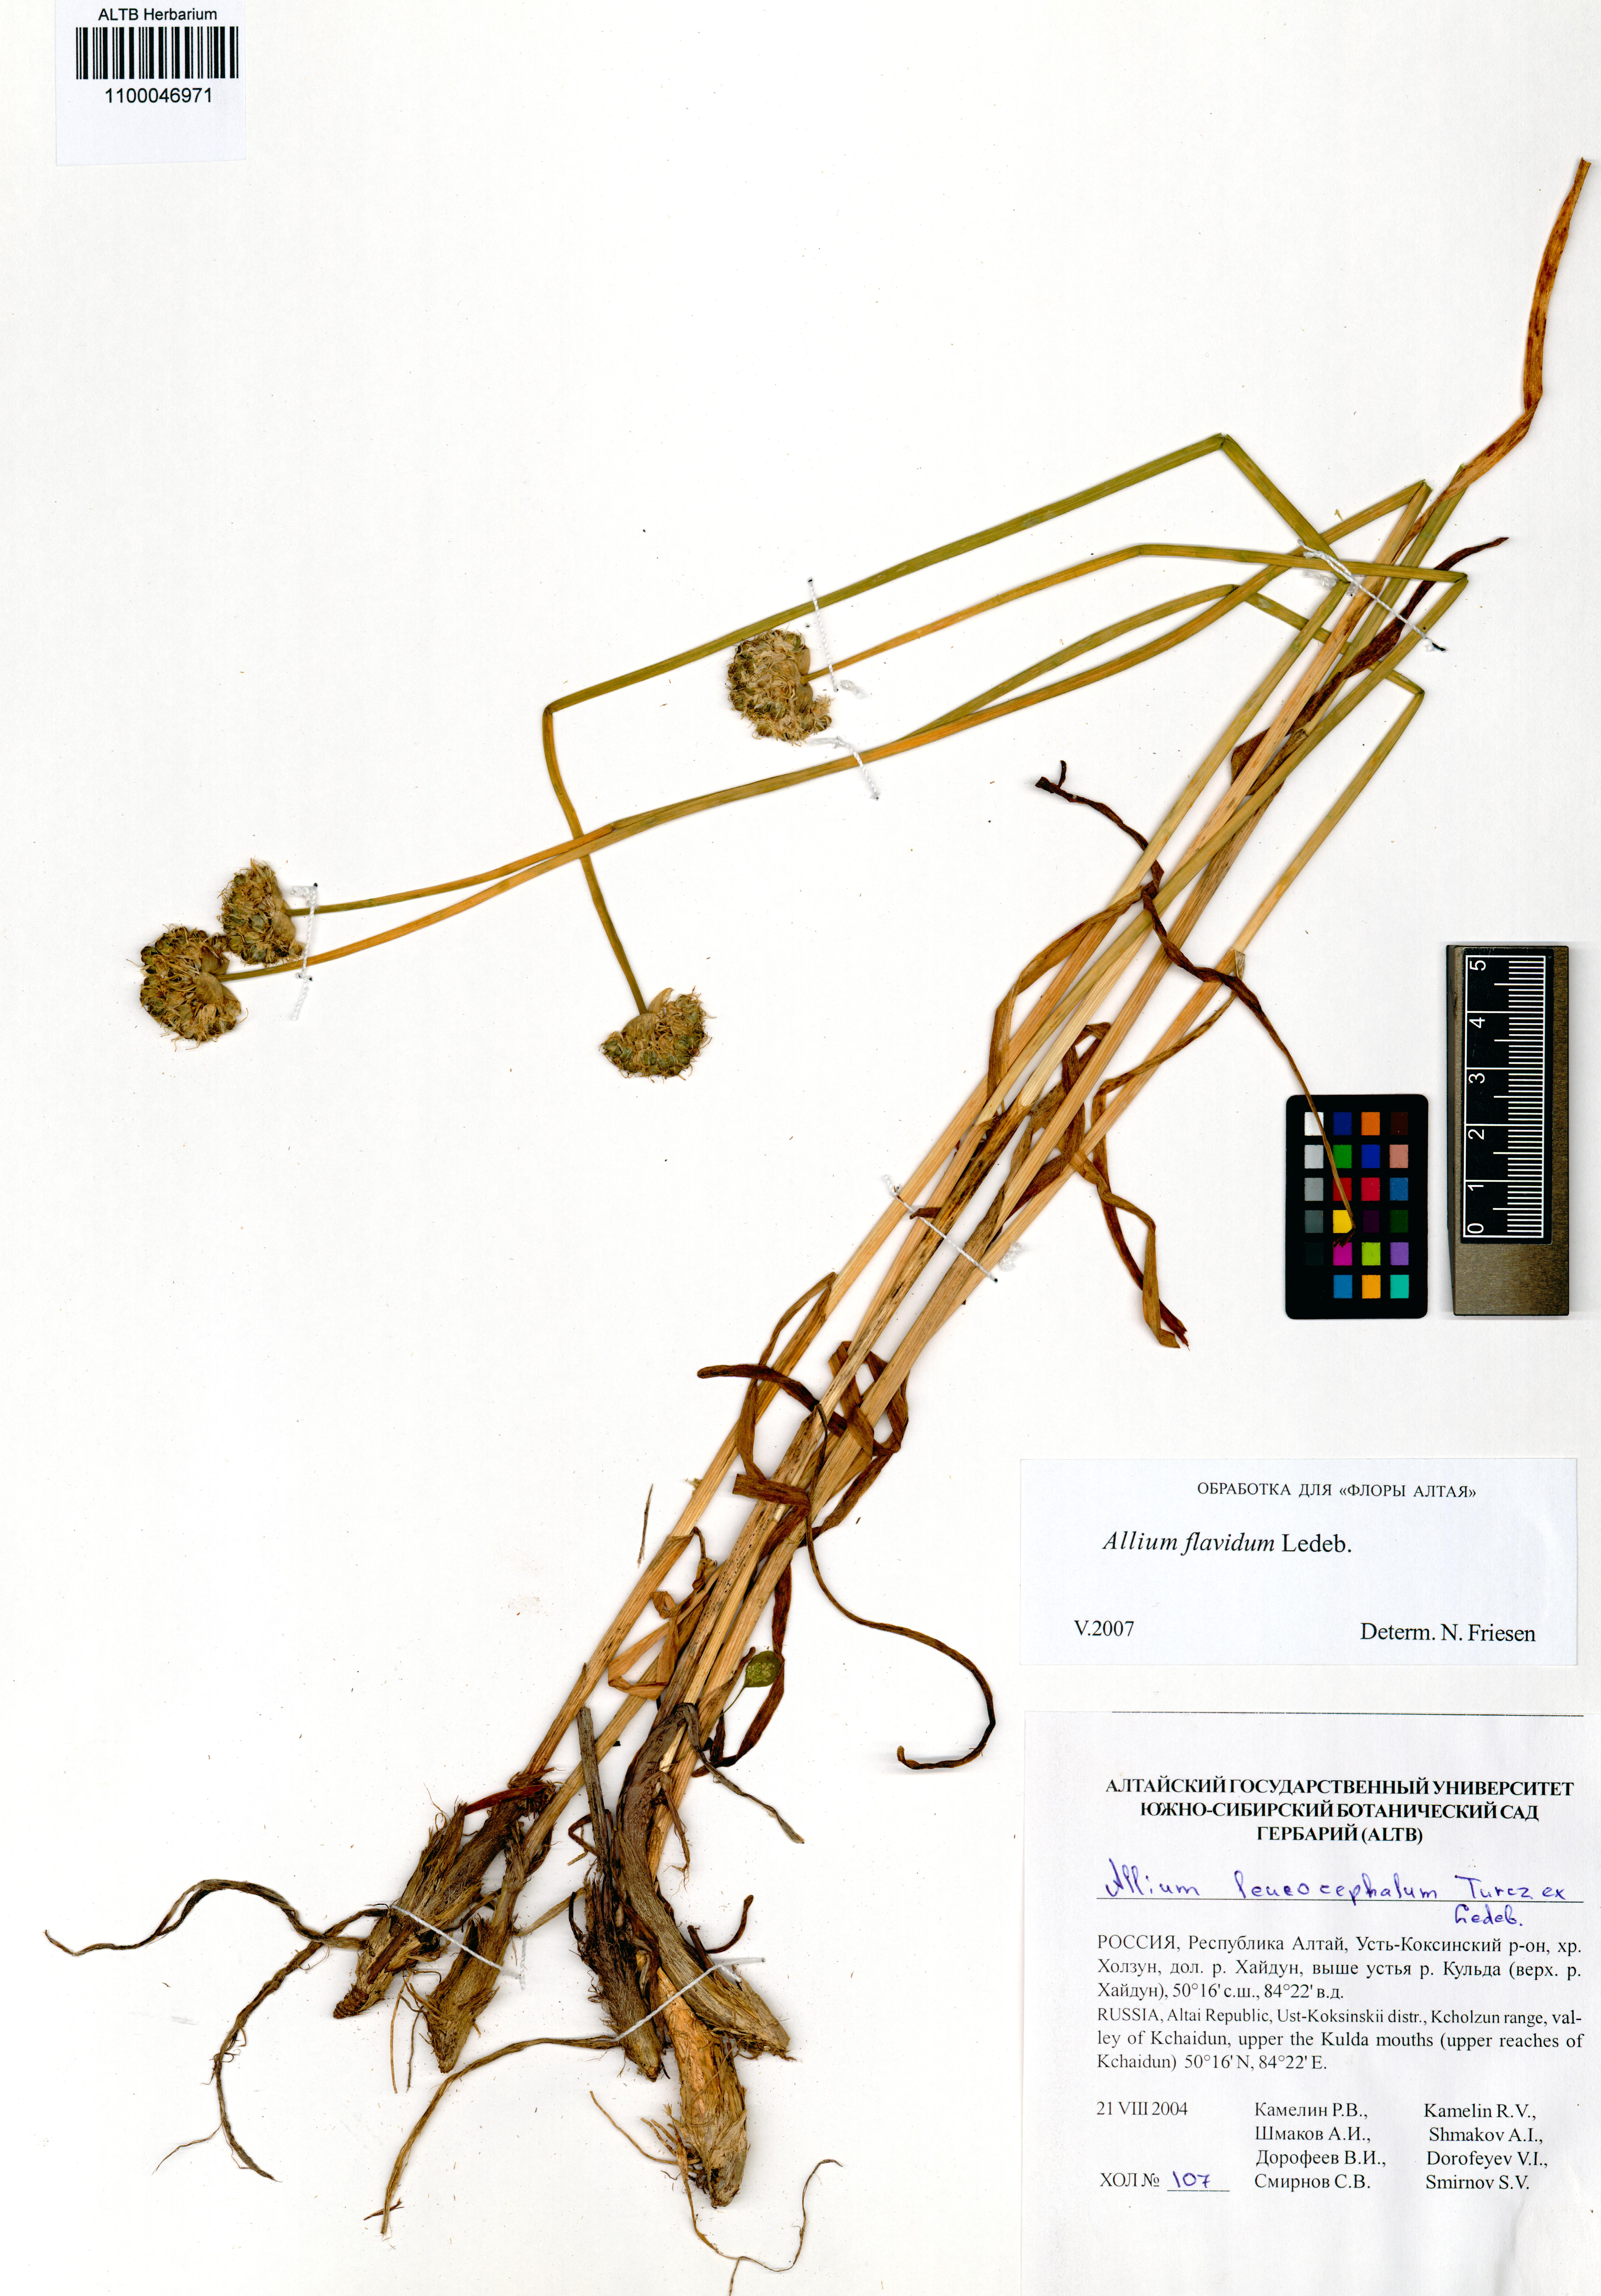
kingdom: Plantae
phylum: Tracheophyta
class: Liliopsida
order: Asparagales
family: Amaryllidaceae
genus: Allium
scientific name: Allium flavidum
